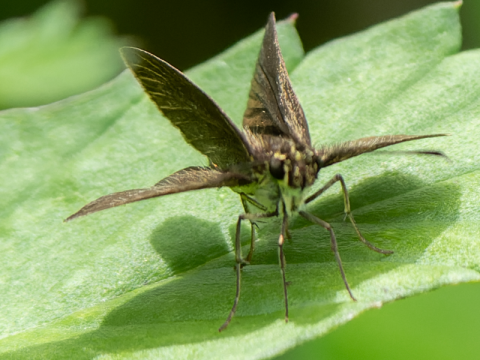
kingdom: Animalia
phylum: Arthropoda
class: Insecta
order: Lepidoptera
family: Hesperiidae
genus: Astictopterus
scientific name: Astictopterus jama
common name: Forest Hopper
